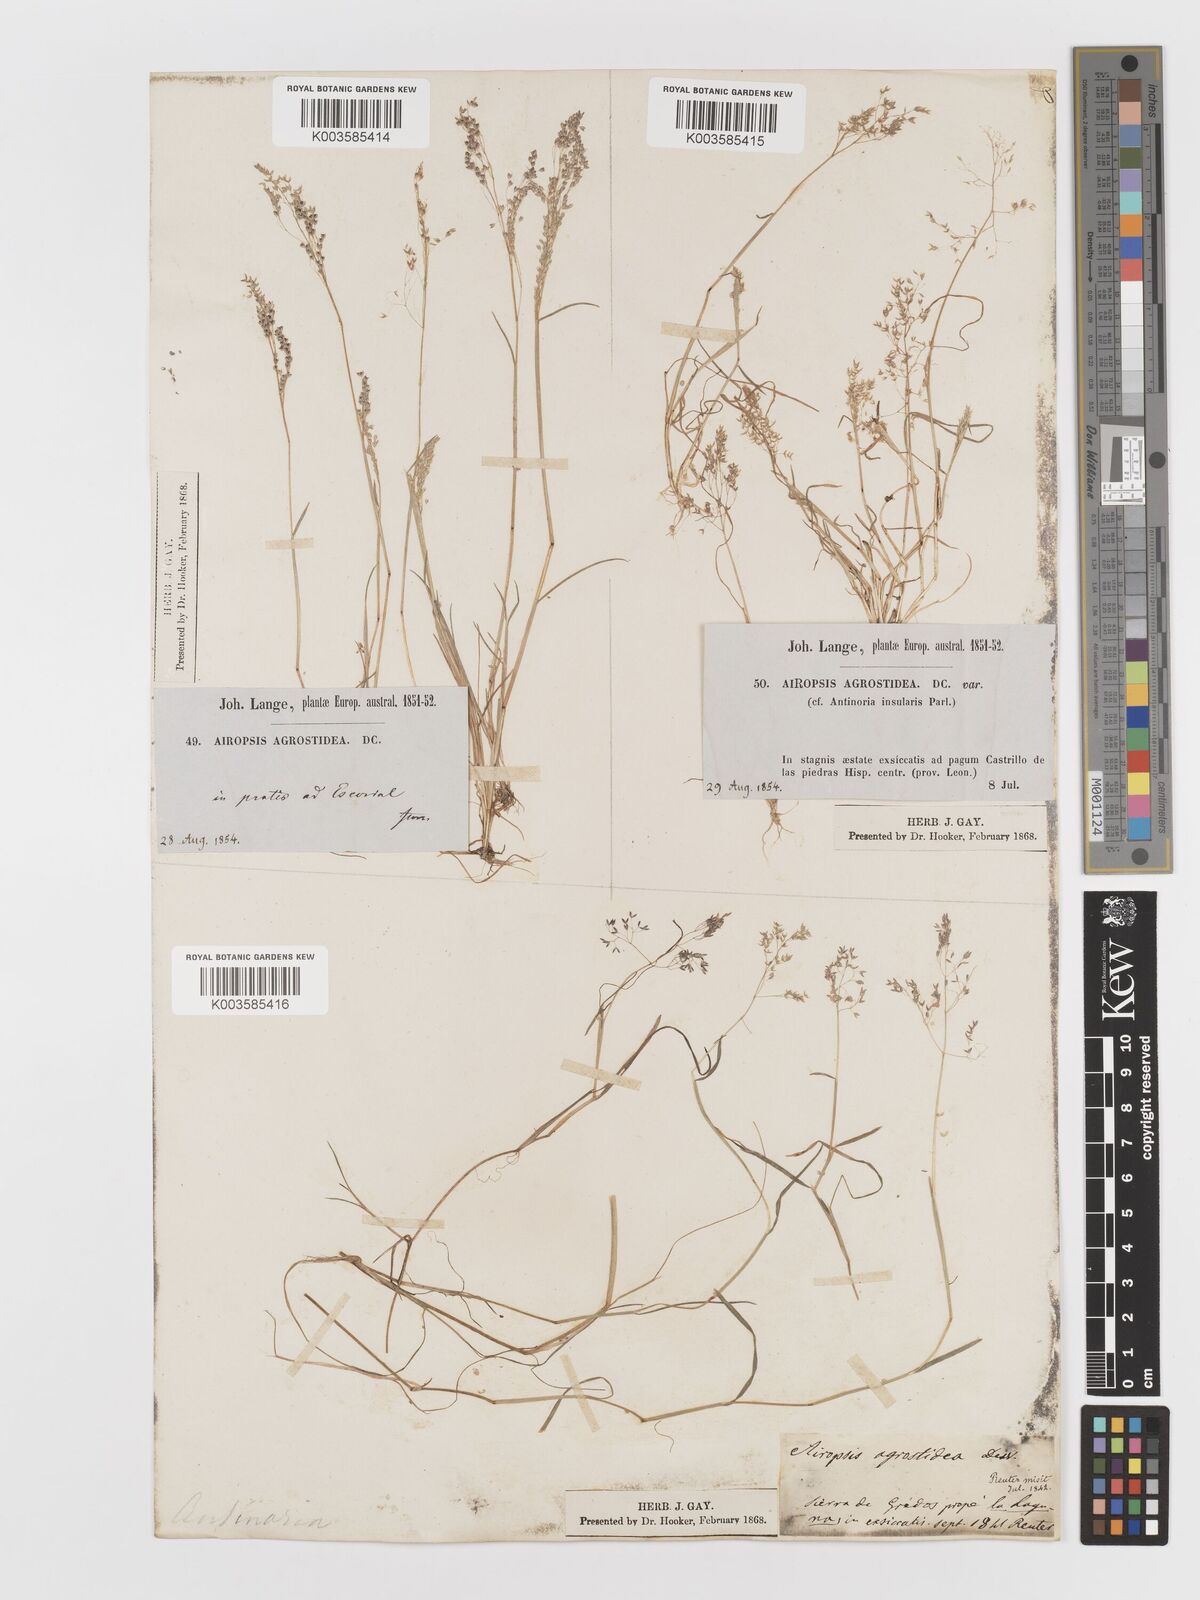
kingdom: Plantae
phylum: Tracheophyta
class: Liliopsida
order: Poales
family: Poaceae
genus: Antinoria
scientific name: Antinoria agrostidea
